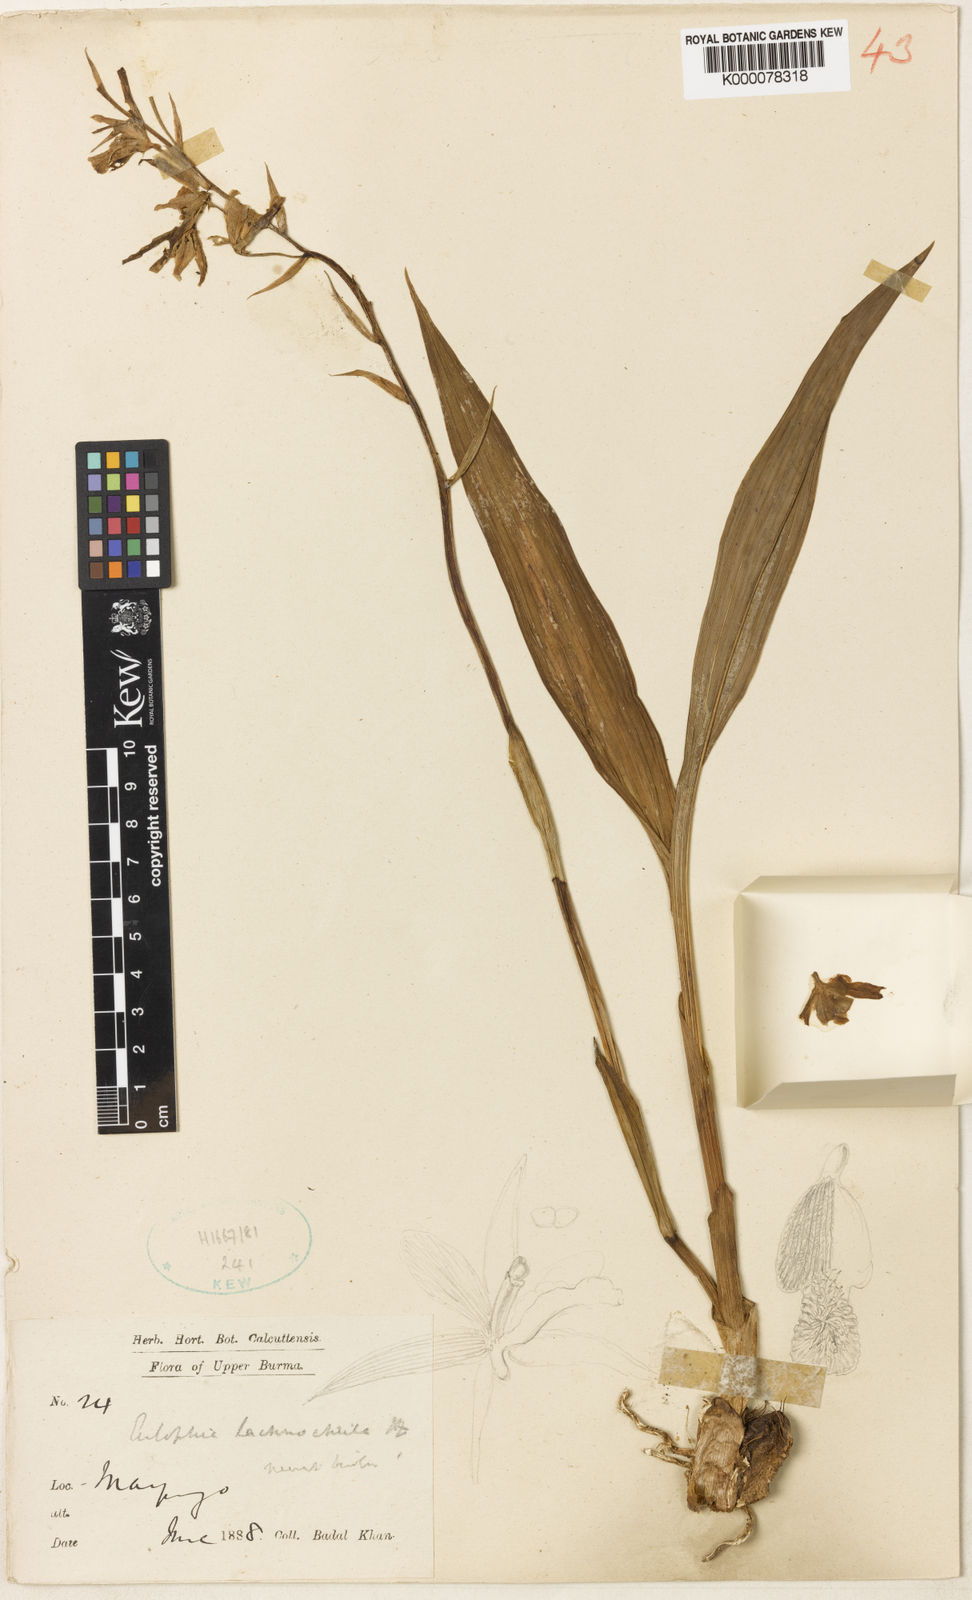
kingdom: Plantae
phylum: Tracheophyta
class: Liliopsida
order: Asparagales
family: Orchidaceae
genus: Eulophia
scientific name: Eulophia herbacea
